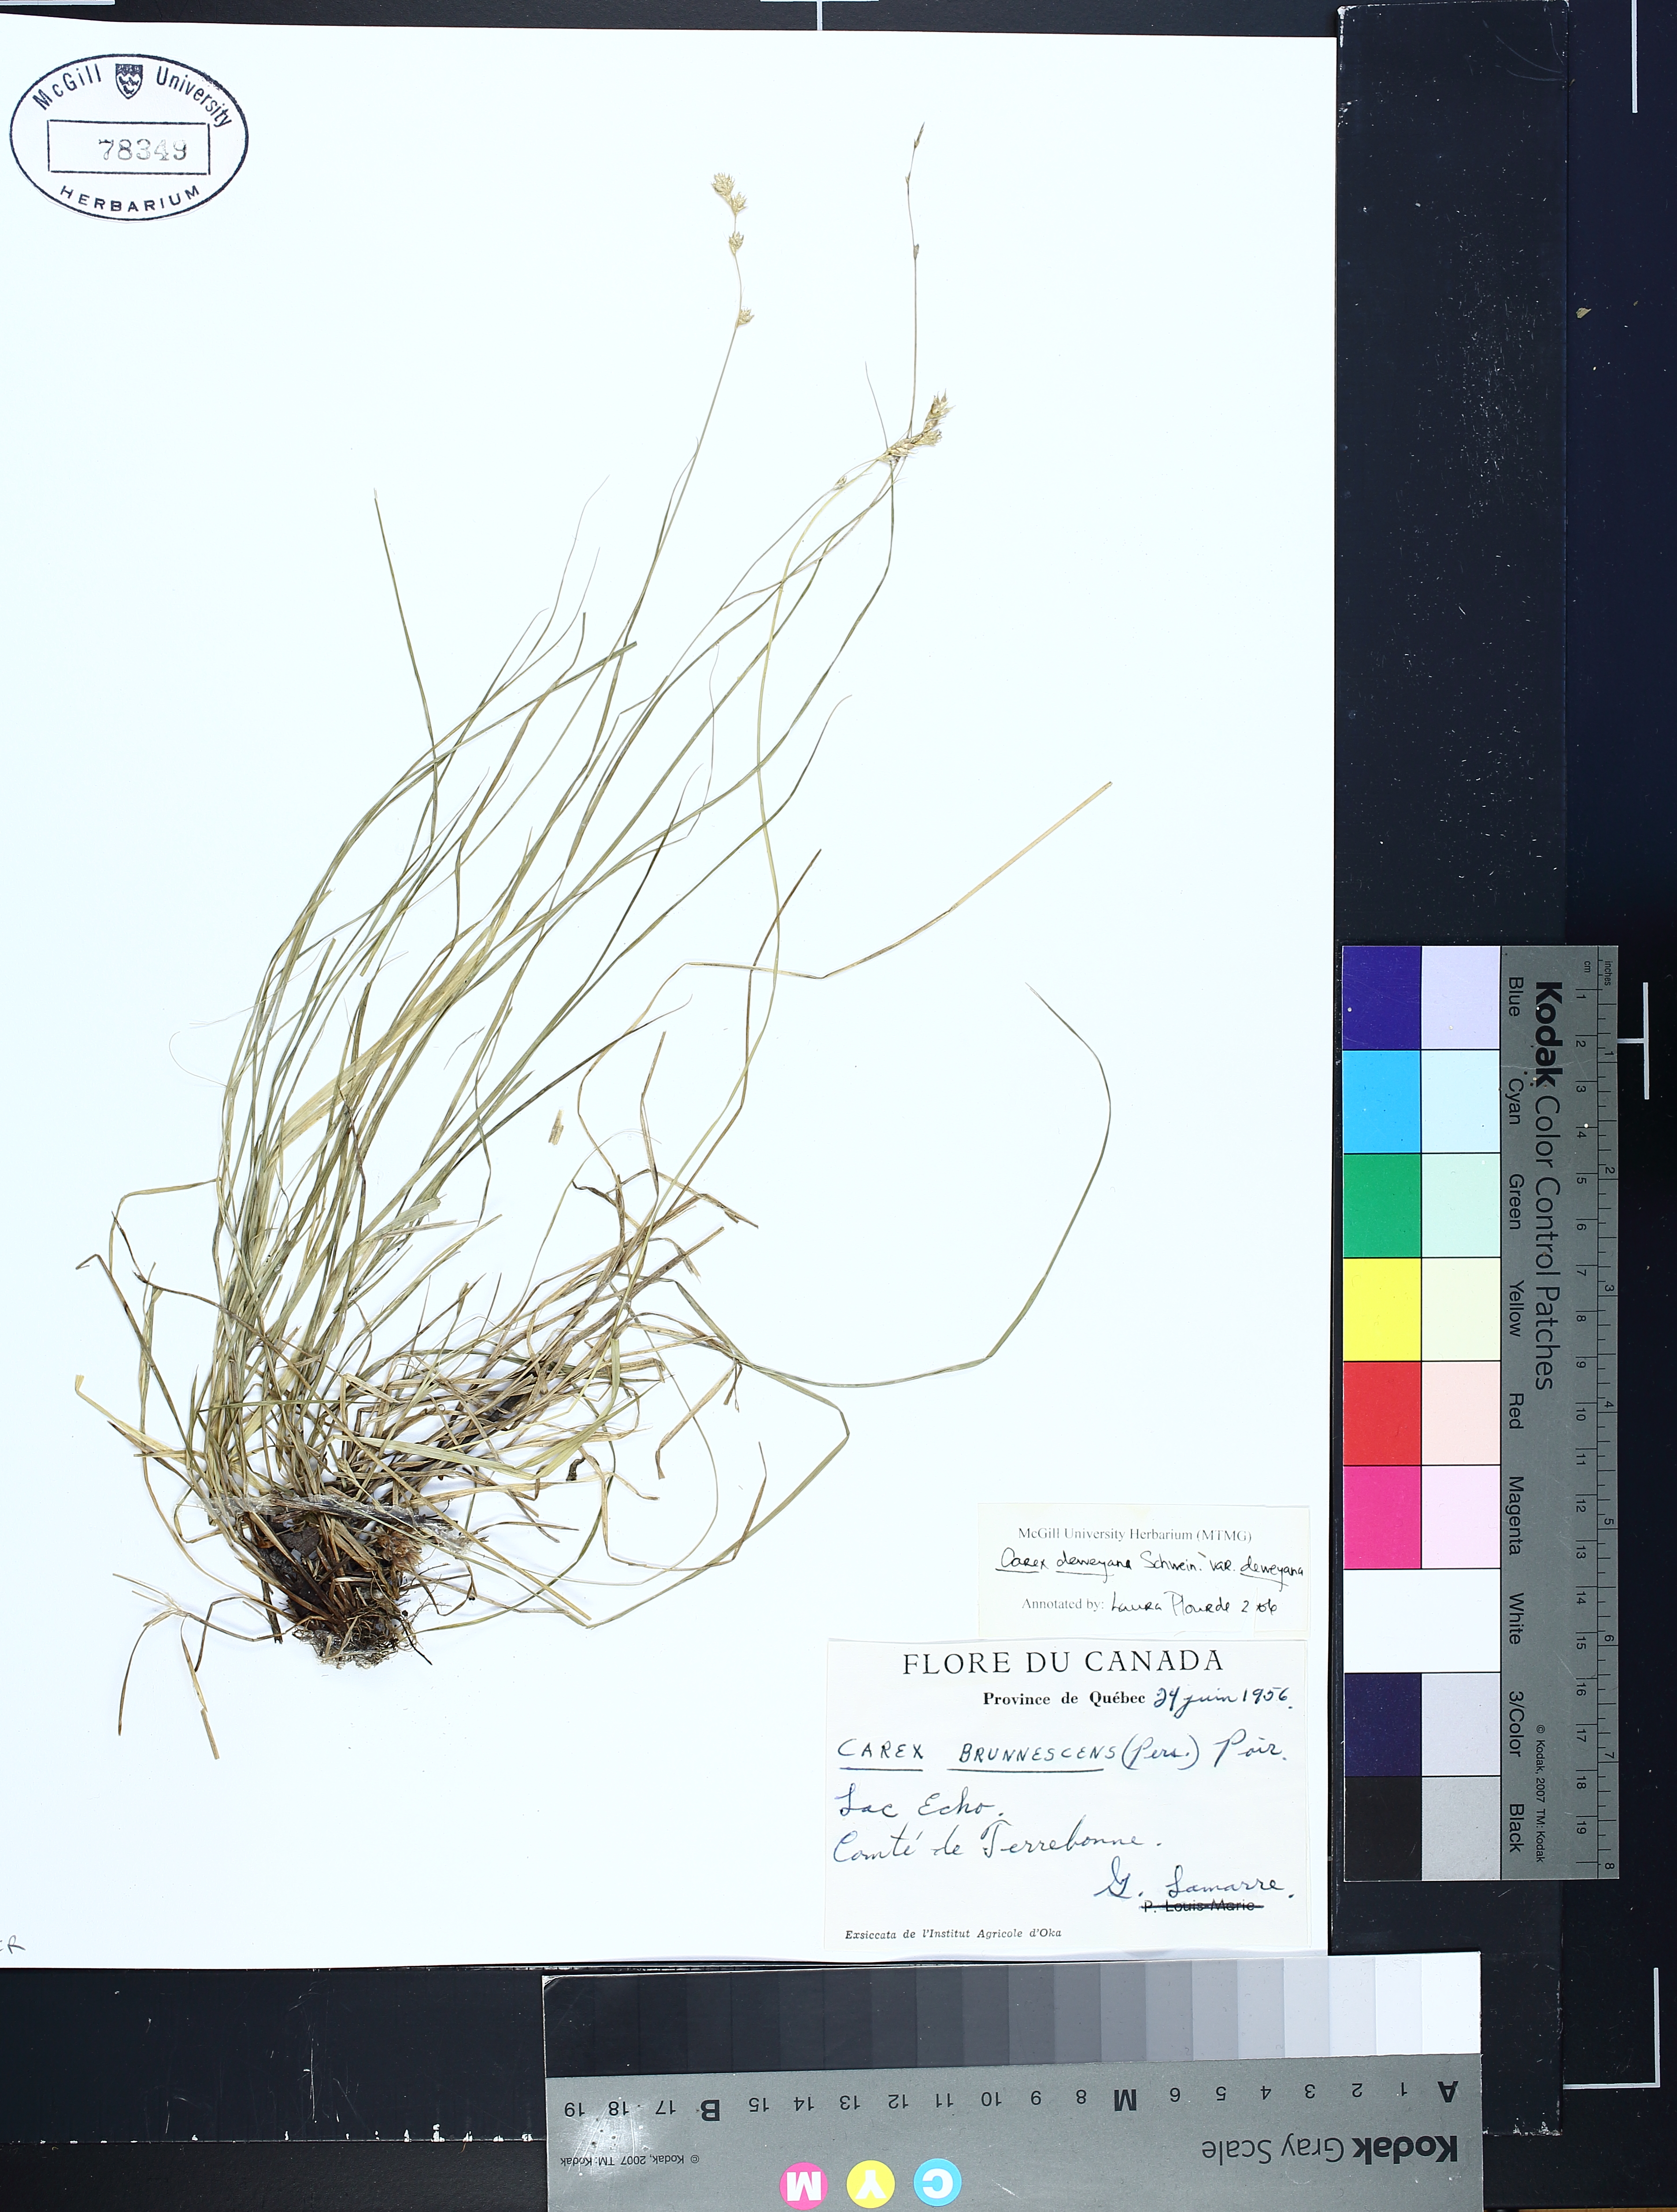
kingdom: Plantae
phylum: Tracheophyta
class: Liliopsida
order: Poales
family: Cyperaceae
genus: Carex
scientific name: Carex deweyana
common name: Dewey's sedge
